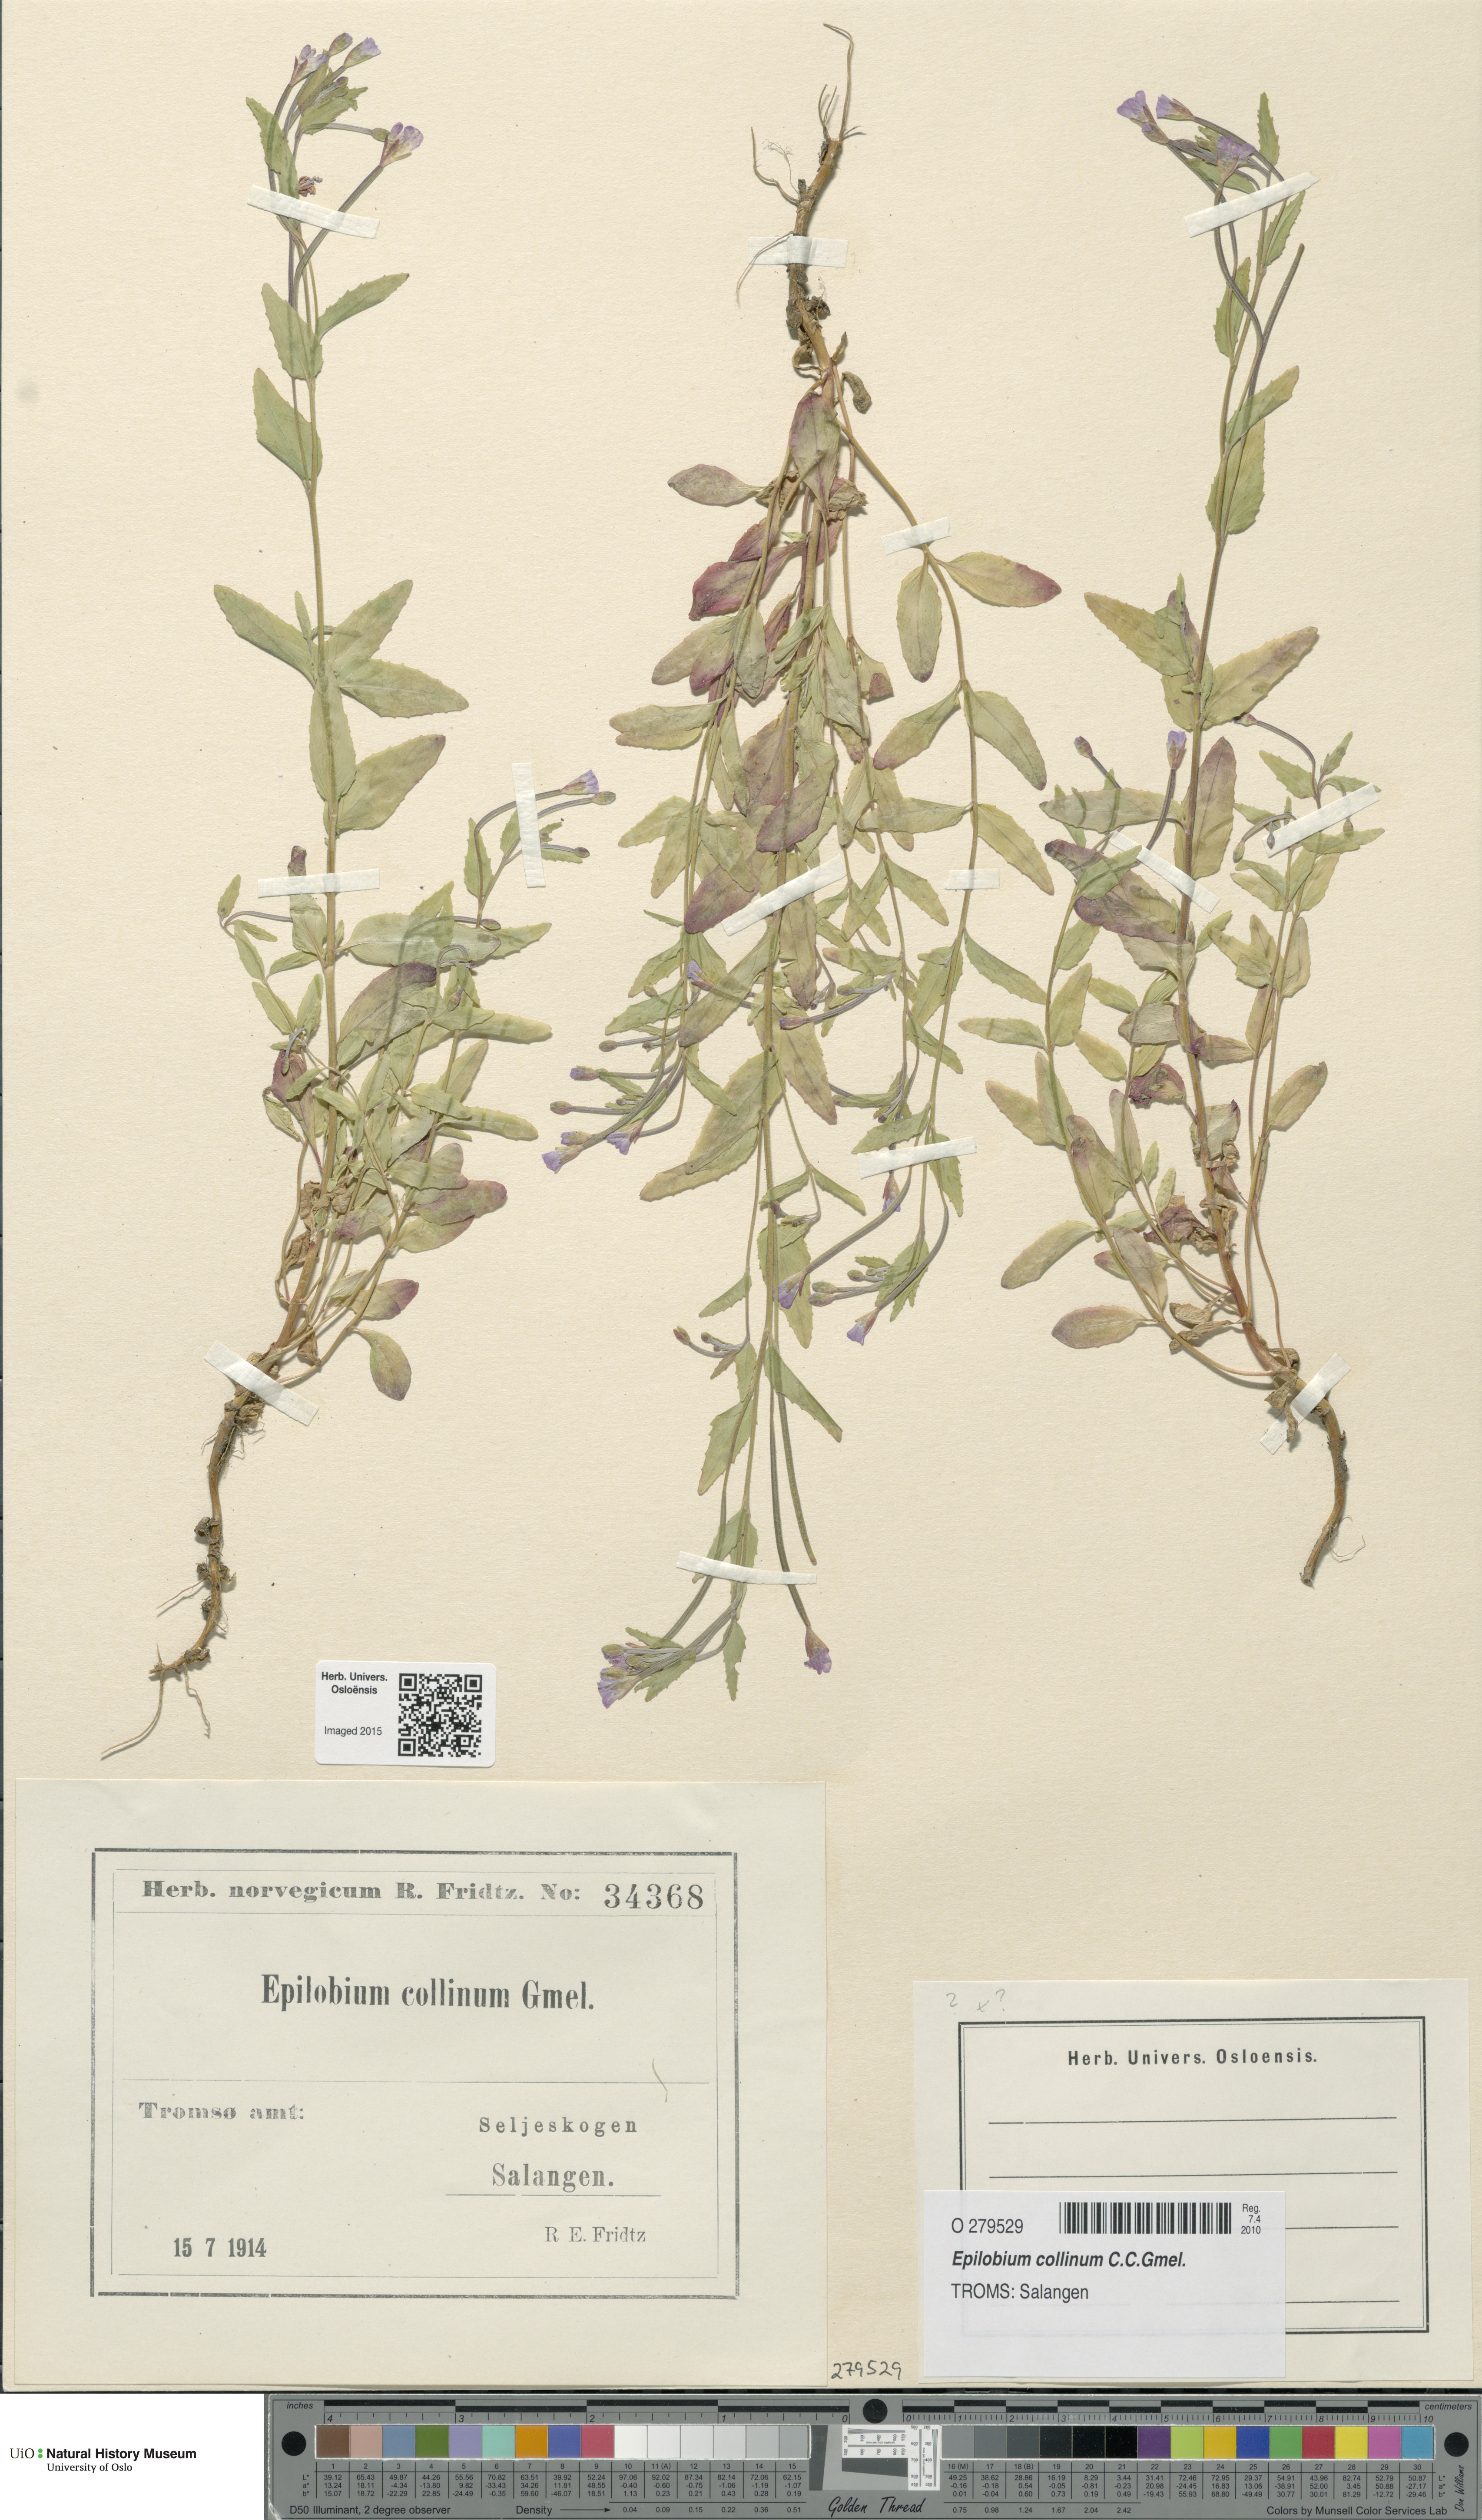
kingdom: Plantae
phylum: Tracheophyta
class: Magnoliopsida
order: Myrtales
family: Onagraceae
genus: Epilobium
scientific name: Epilobium collinum
